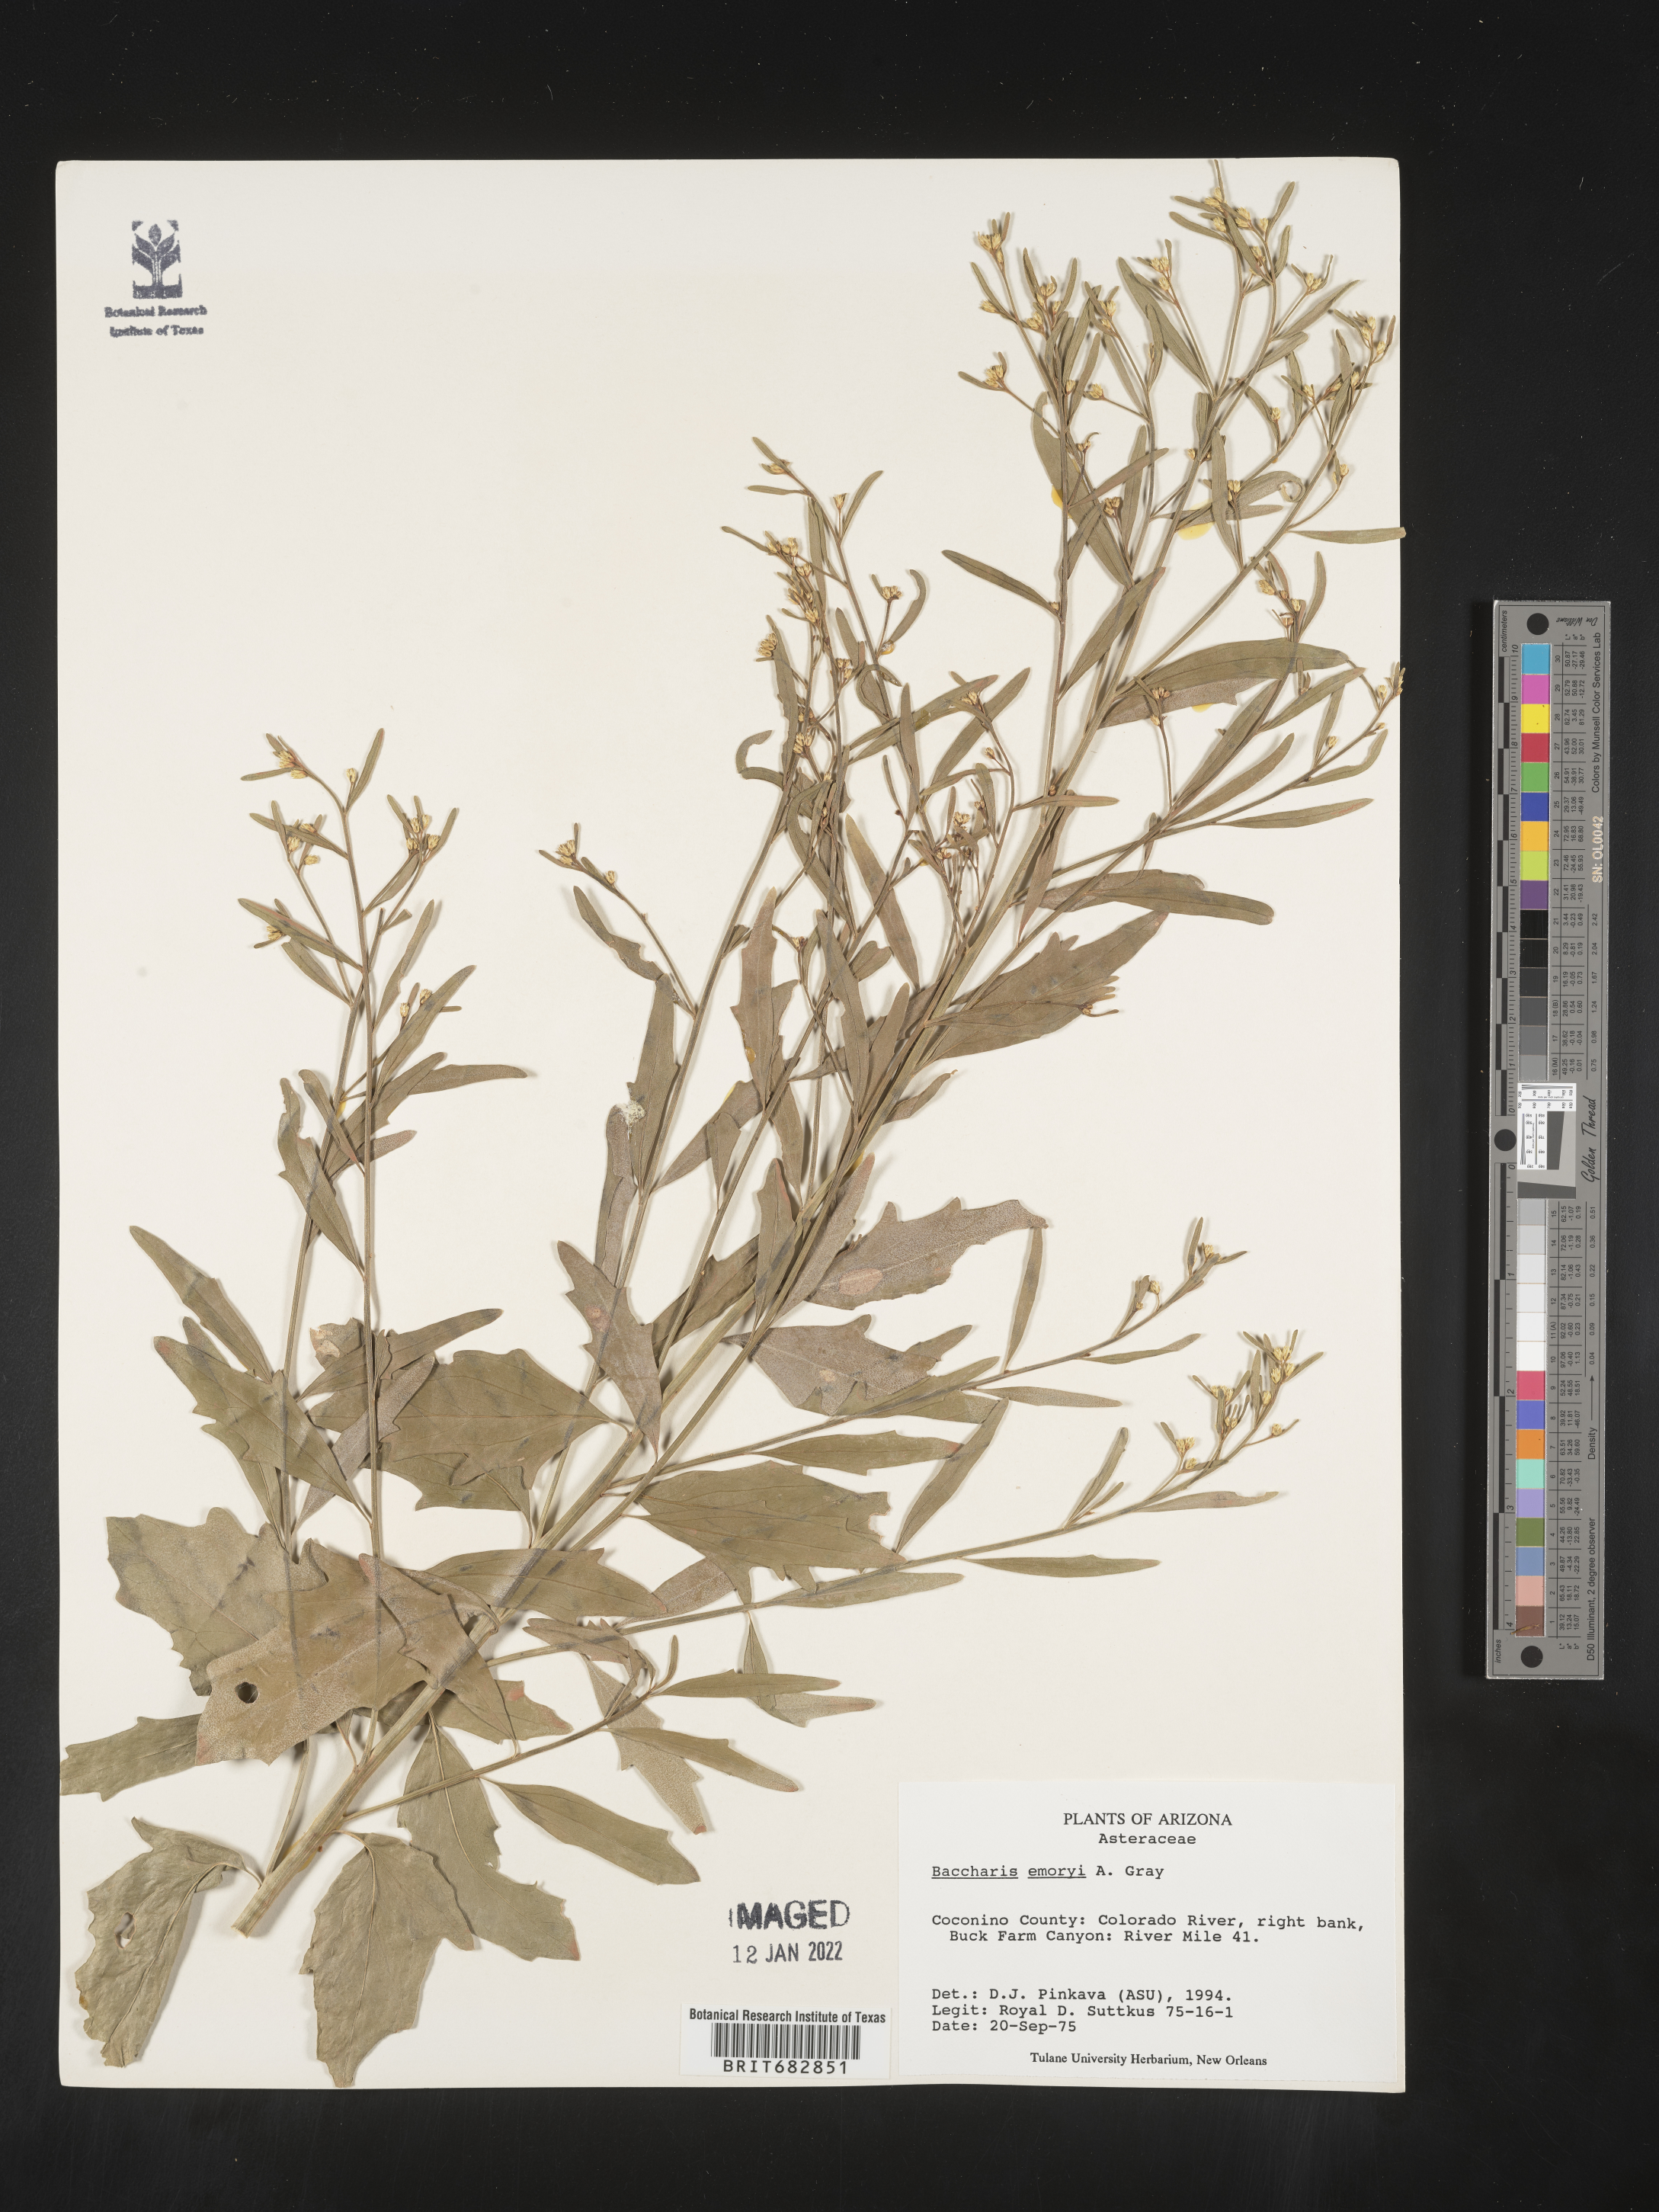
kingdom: Plantae
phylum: Tracheophyta
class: Magnoliopsida
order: Asterales
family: Asteraceae
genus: Baccharis
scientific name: Baccharis salicina
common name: Willow baccharis
